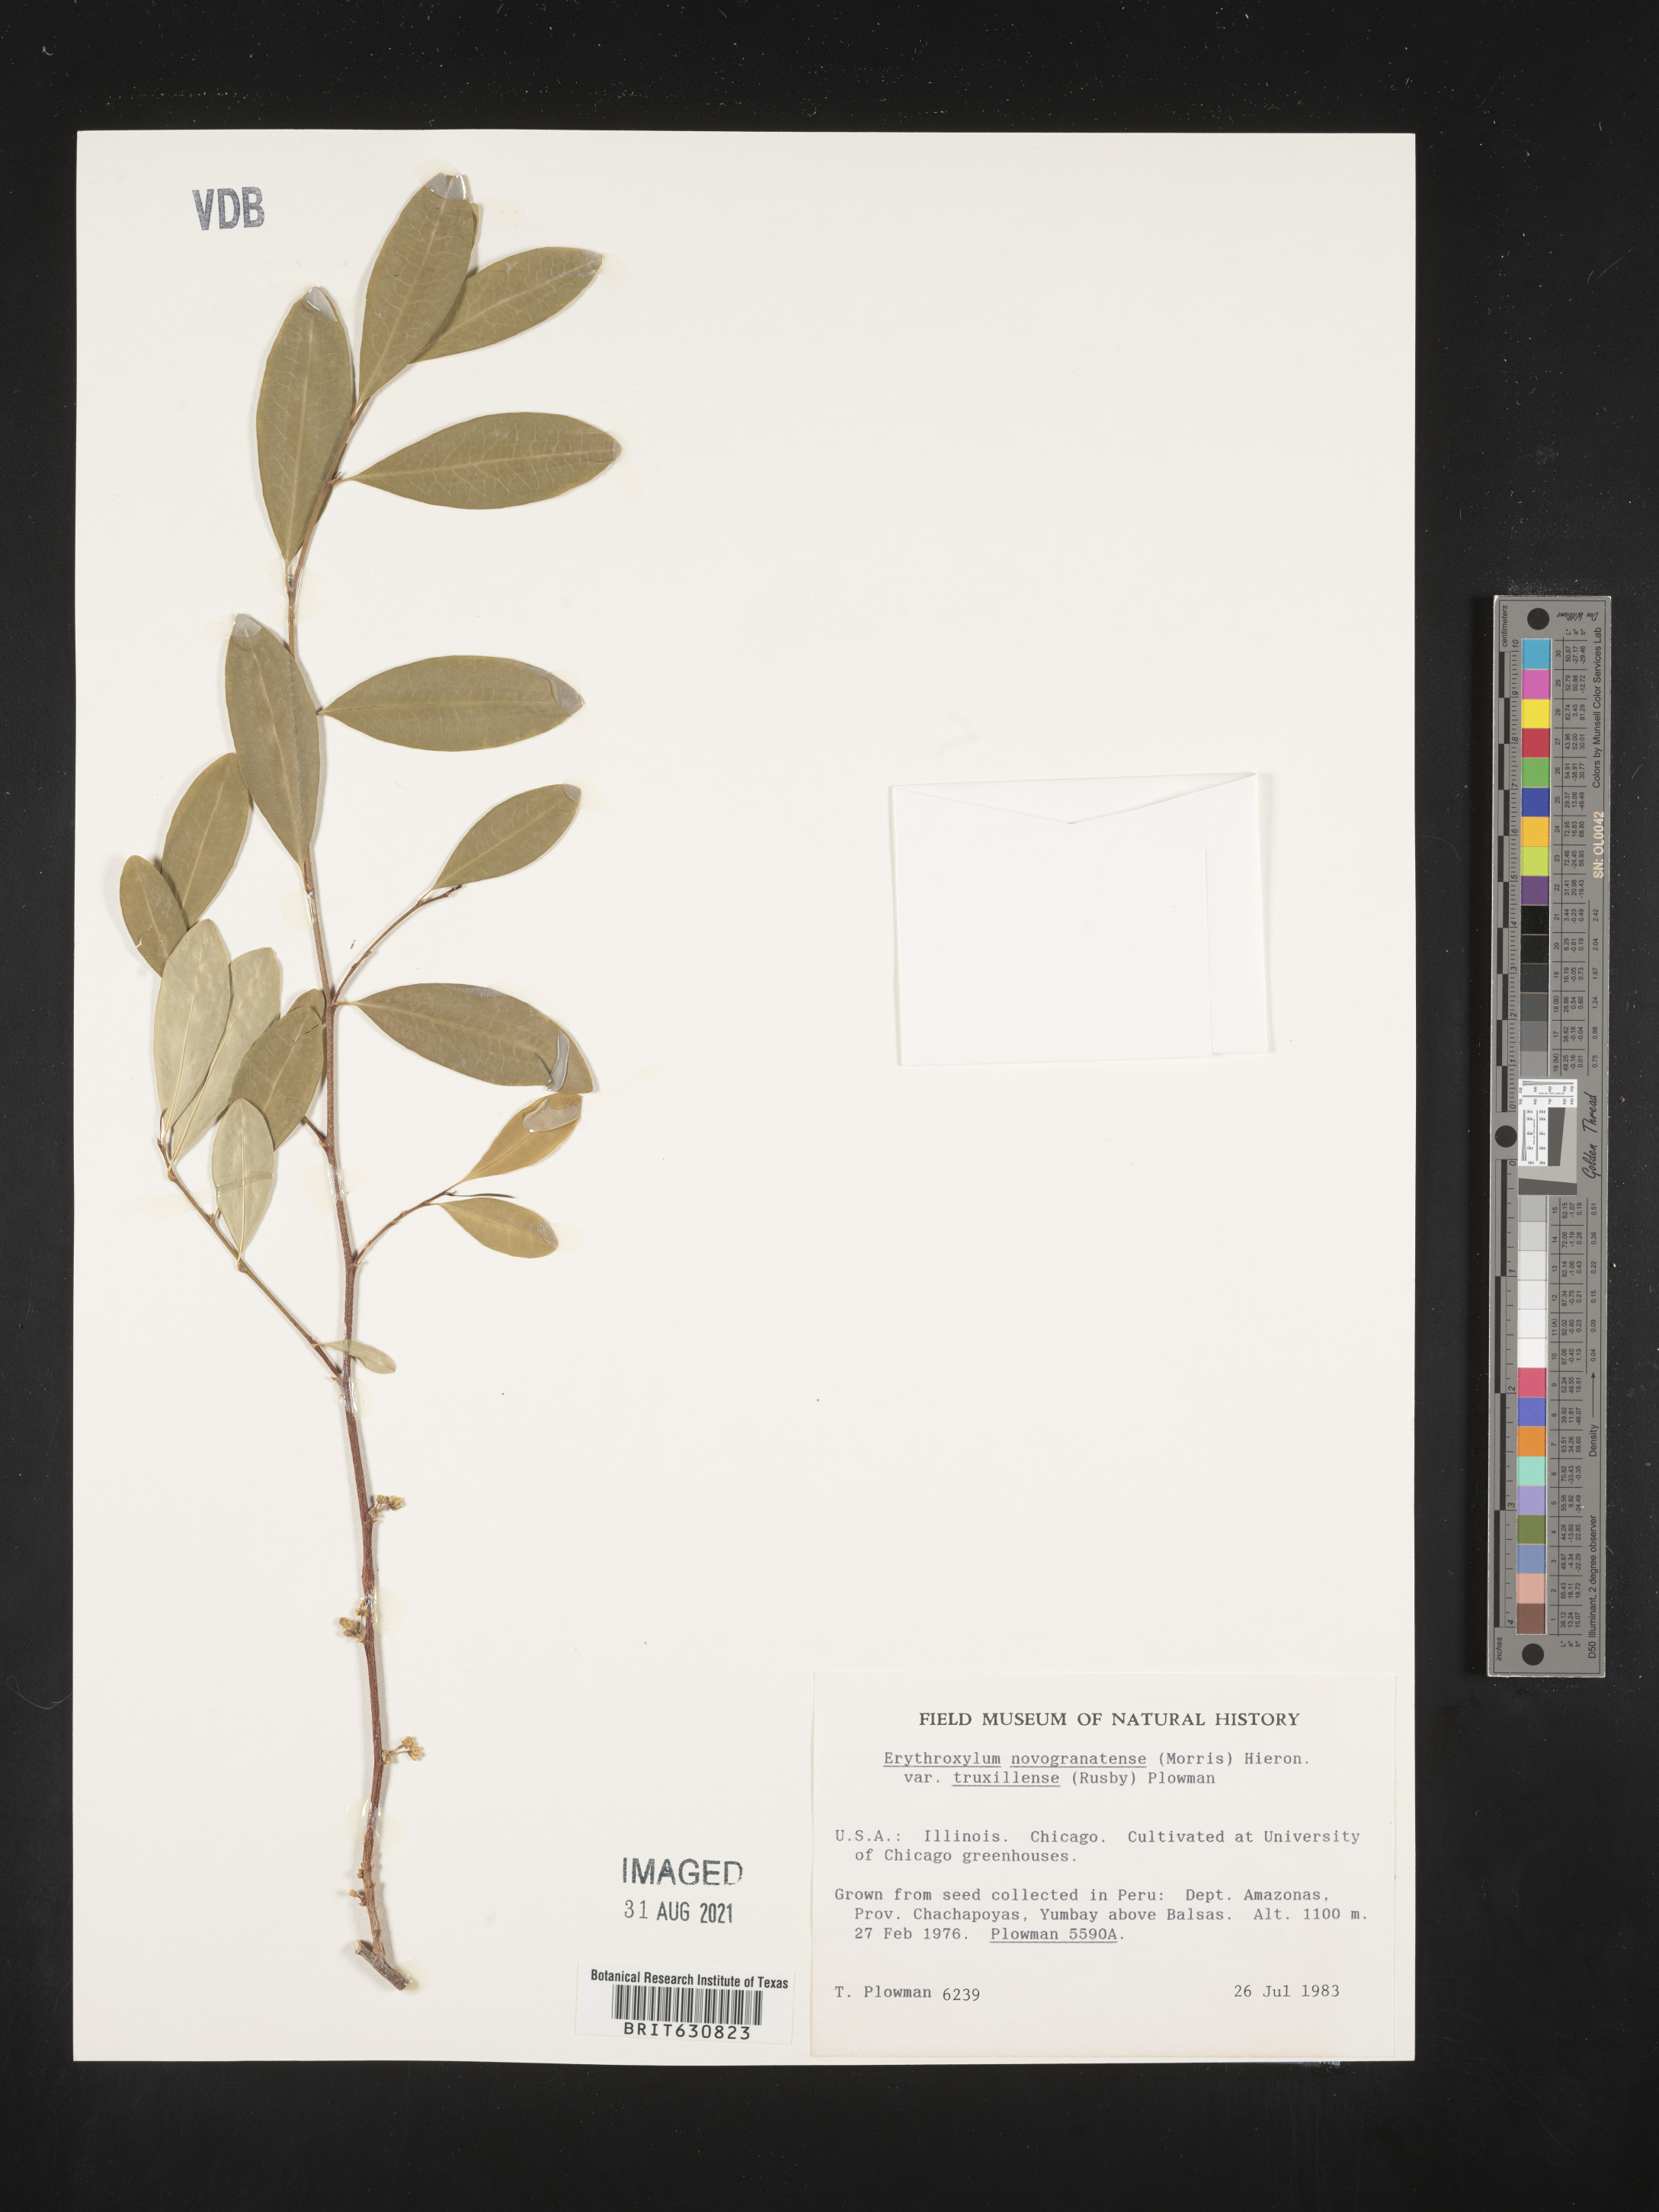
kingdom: Plantae
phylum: Tracheophyta
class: Magnoliopsida
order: Malpighiales
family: Erythroxylaceae
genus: Erythroxylum
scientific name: Erythroxylum
